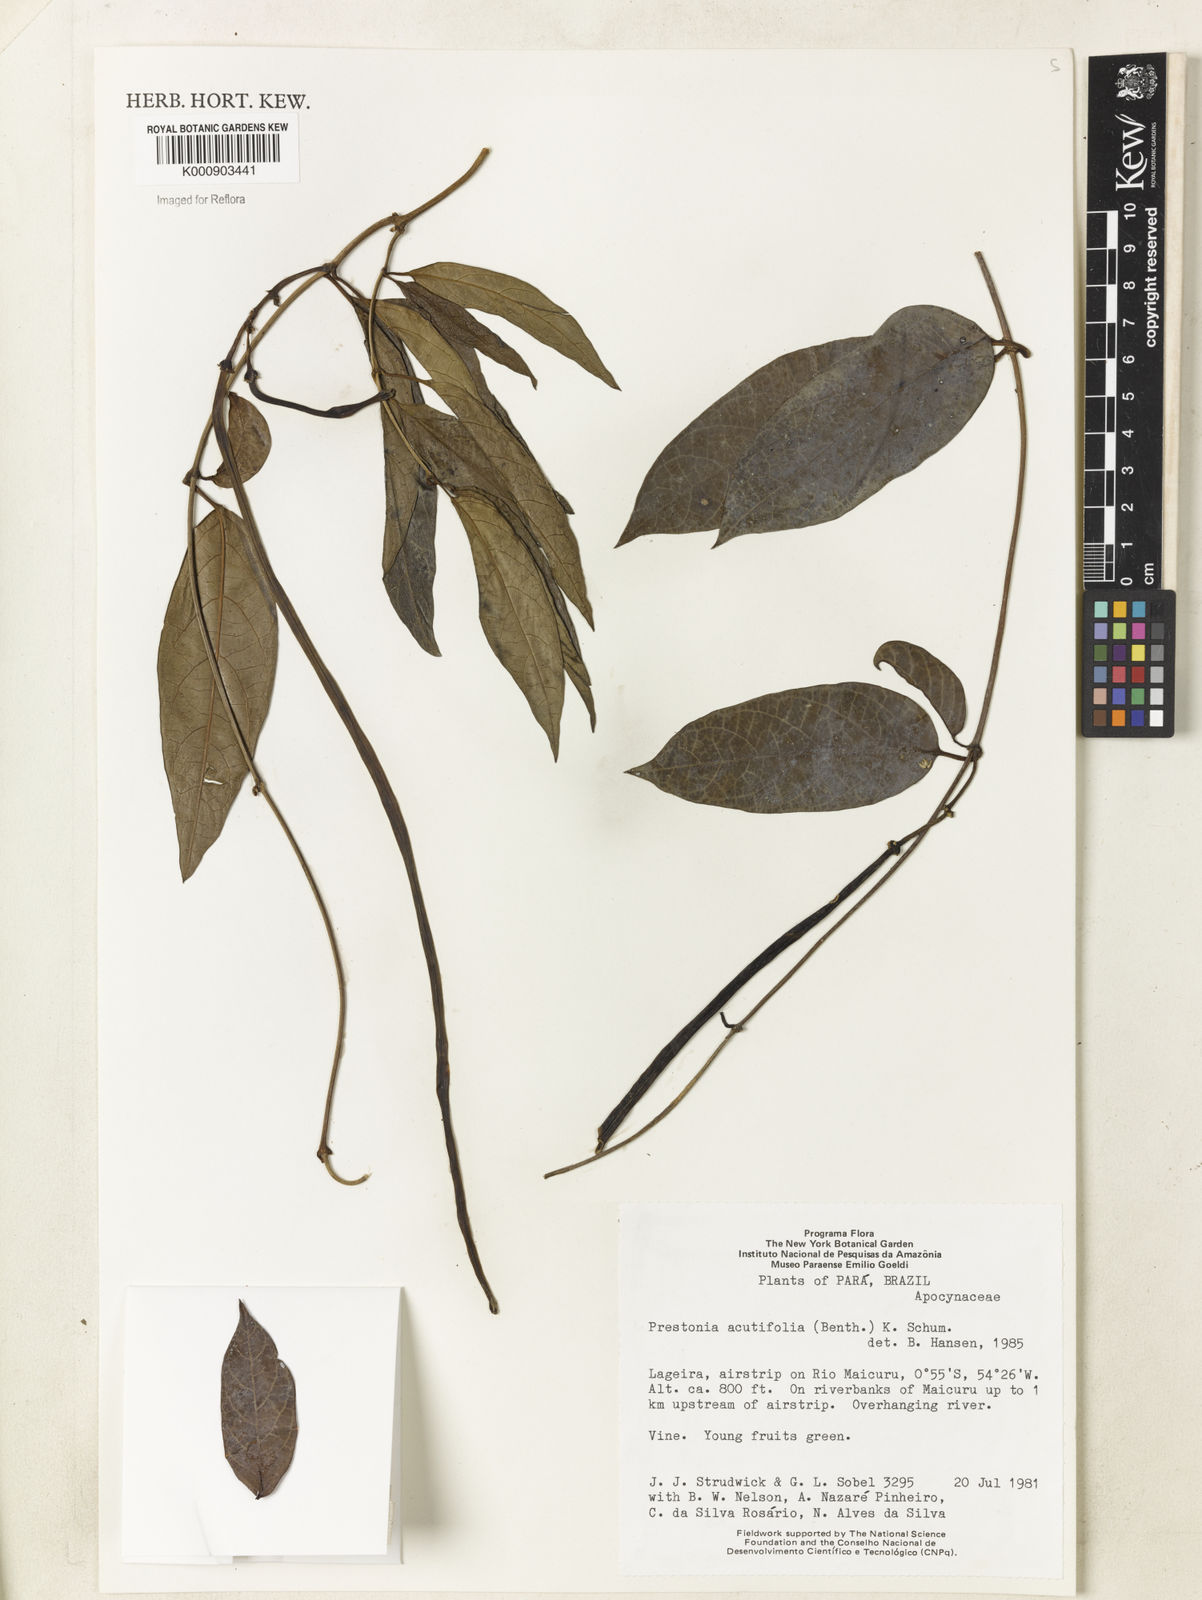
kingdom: Plantae
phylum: Tracheophyta
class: Magnoliopsida
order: Gentianales
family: Apocynaceae
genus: Prestonia
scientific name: Prestonia quinquangularis
